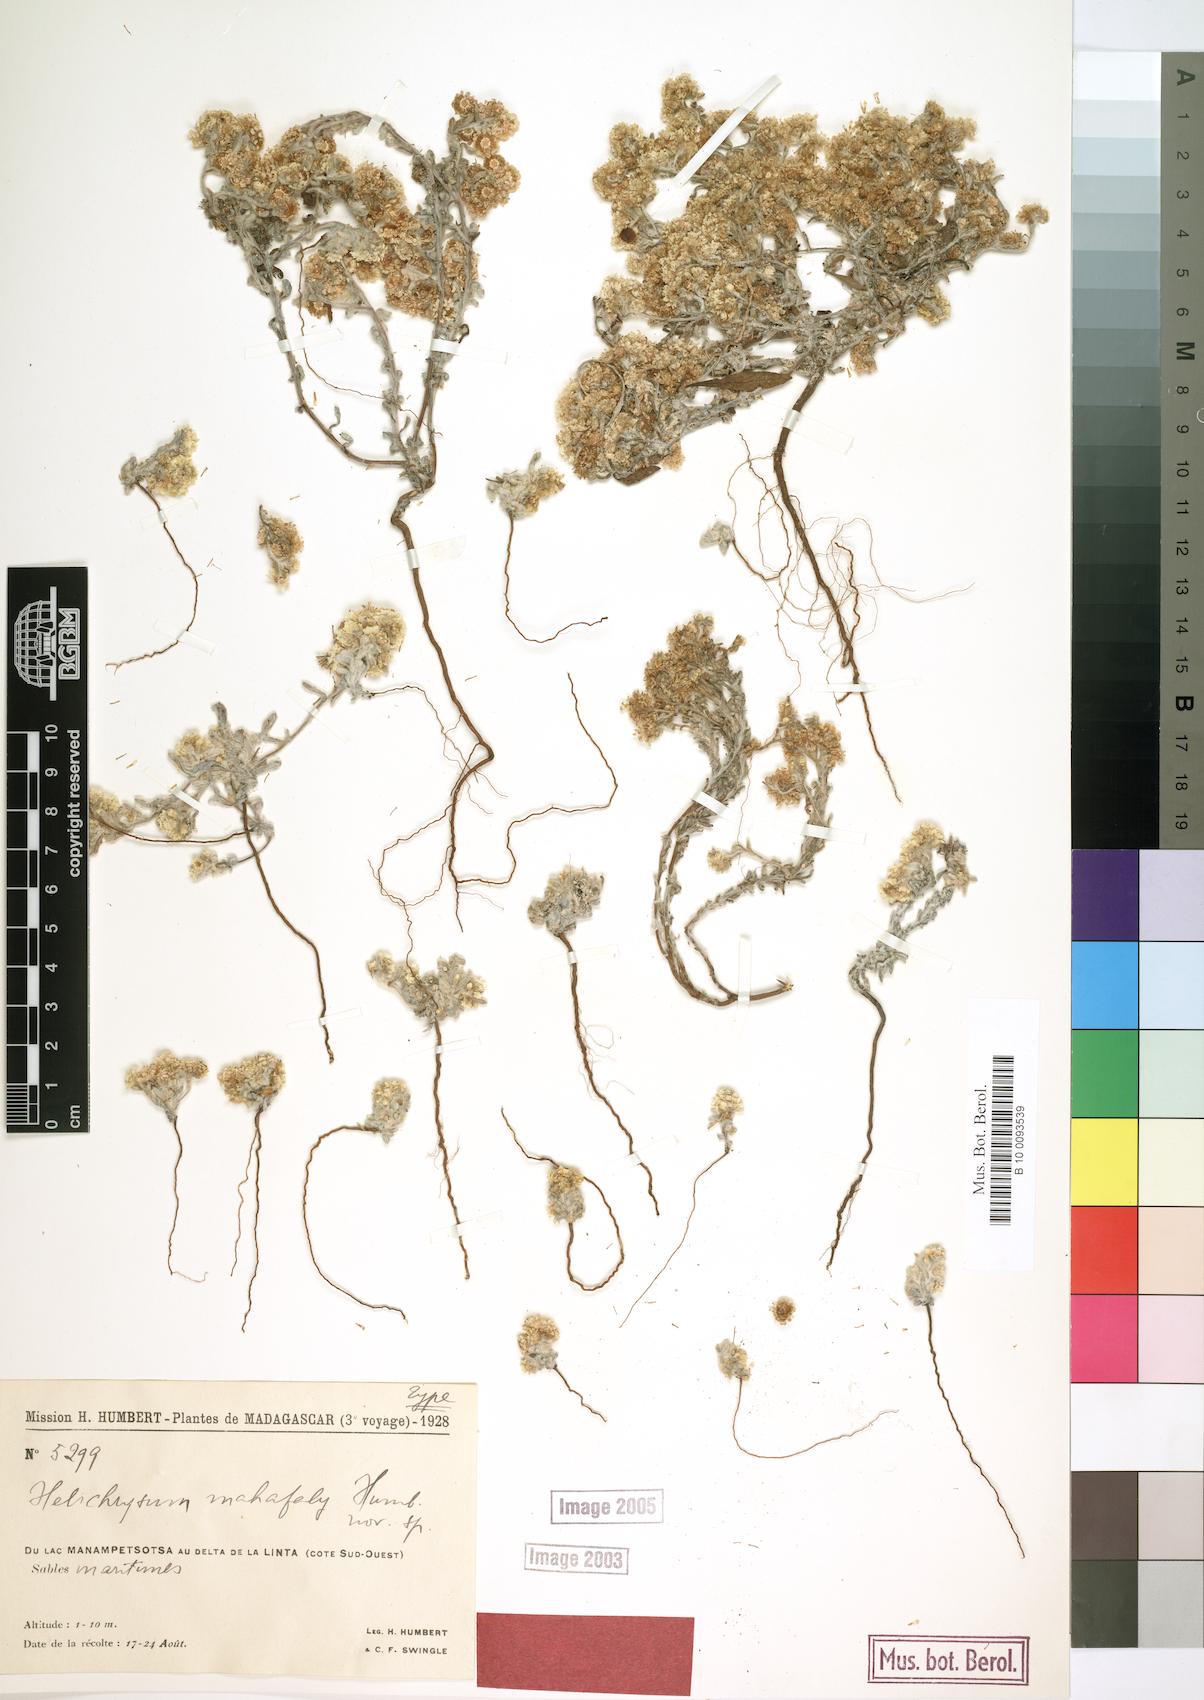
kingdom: Plantae
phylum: Tracheophyta
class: Magnoliopsida
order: Asterales
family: Asteraceae
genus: Helichrysum
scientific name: Helichrysum mahafaly
